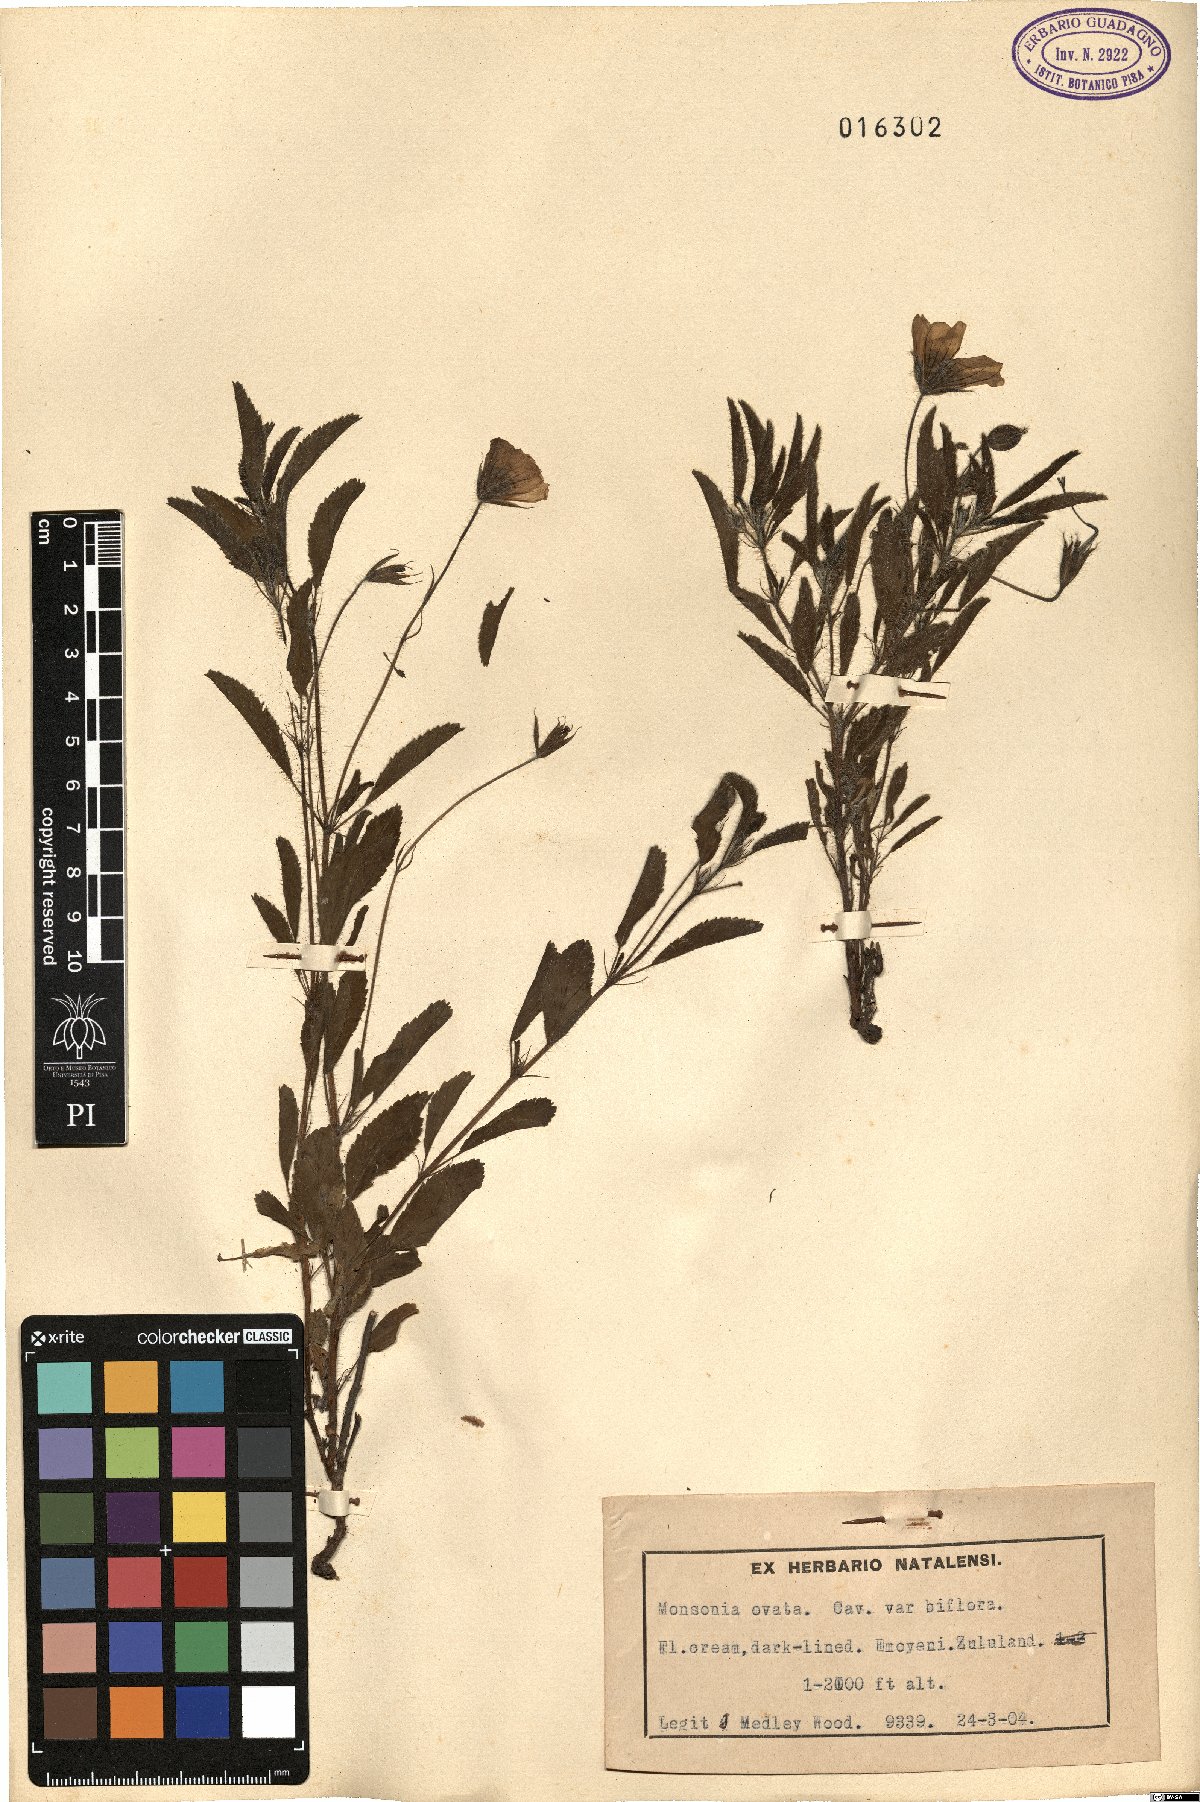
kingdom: Plantae
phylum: Tracheophyta
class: Magnoliopsida
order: Geraniales
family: Geraniaceae
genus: Monsonia
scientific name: Monsonia emarginata
